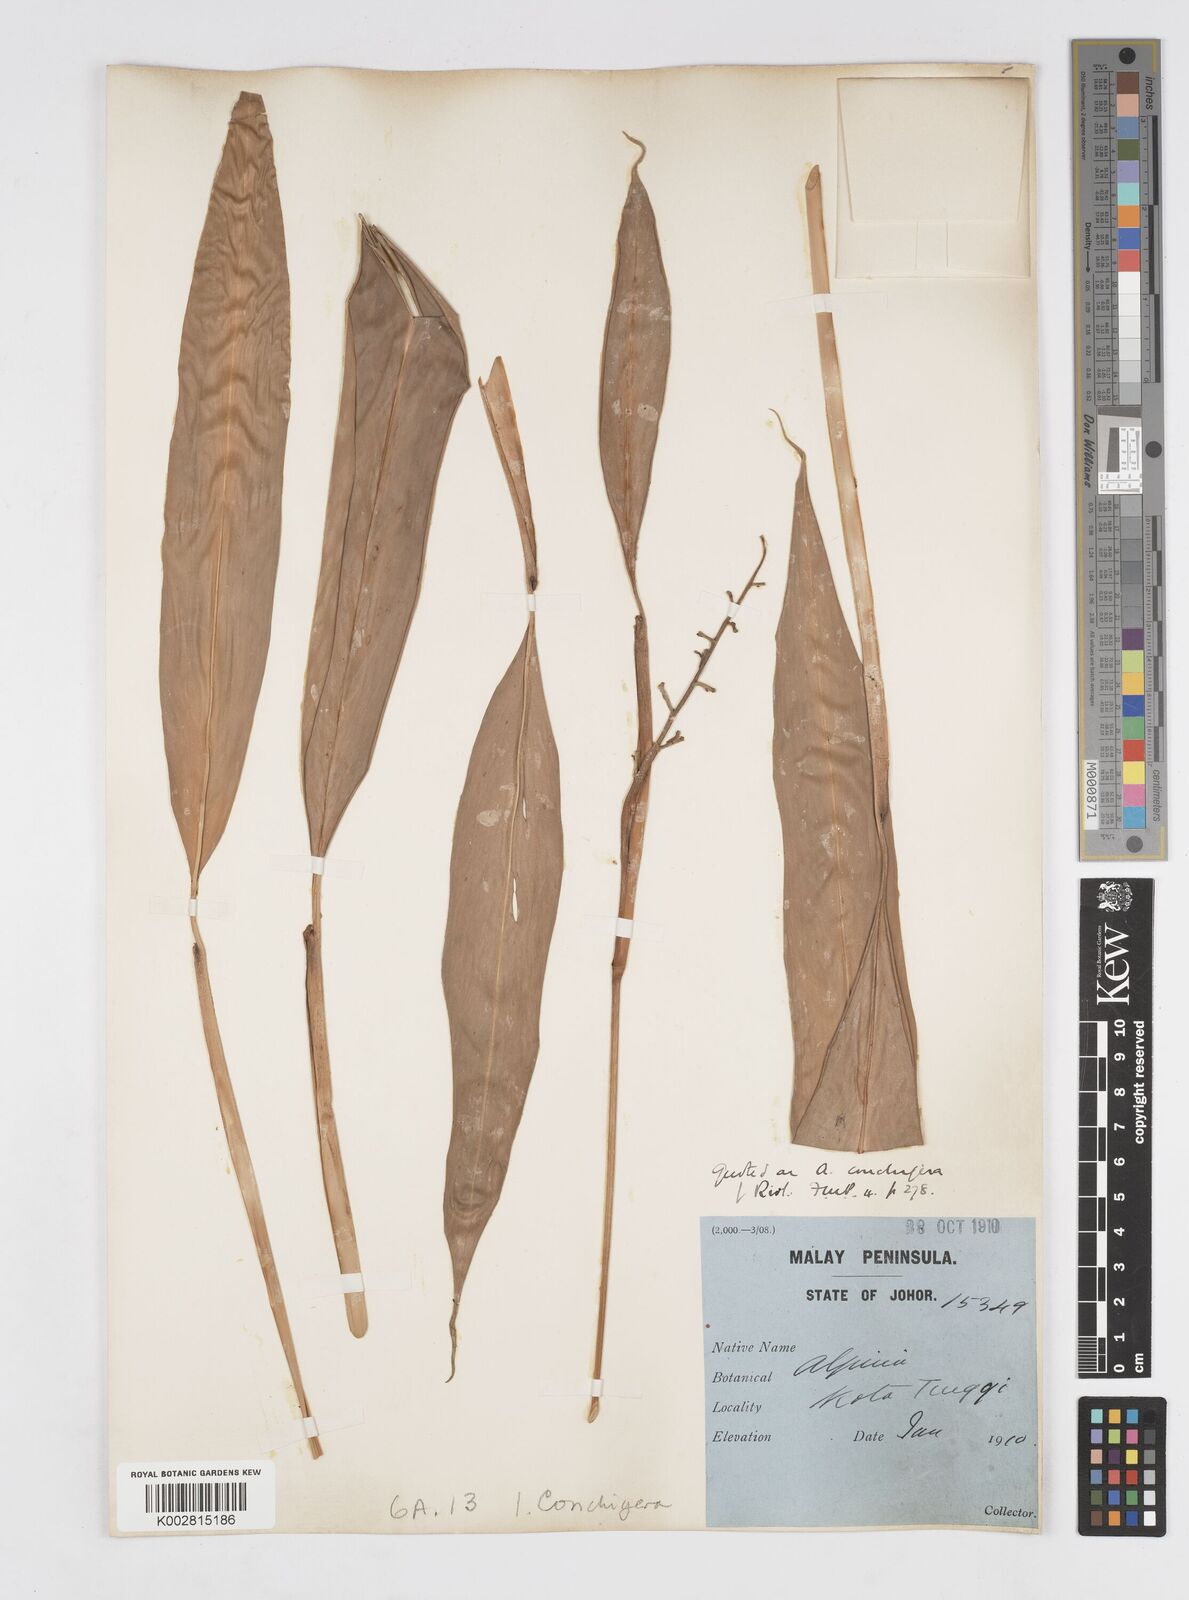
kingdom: Plantae
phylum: Tracheophyta
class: Liliopsida
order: Zingiberales
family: Zingiberaceae
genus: Alpinia
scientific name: Alpinia conchigera
